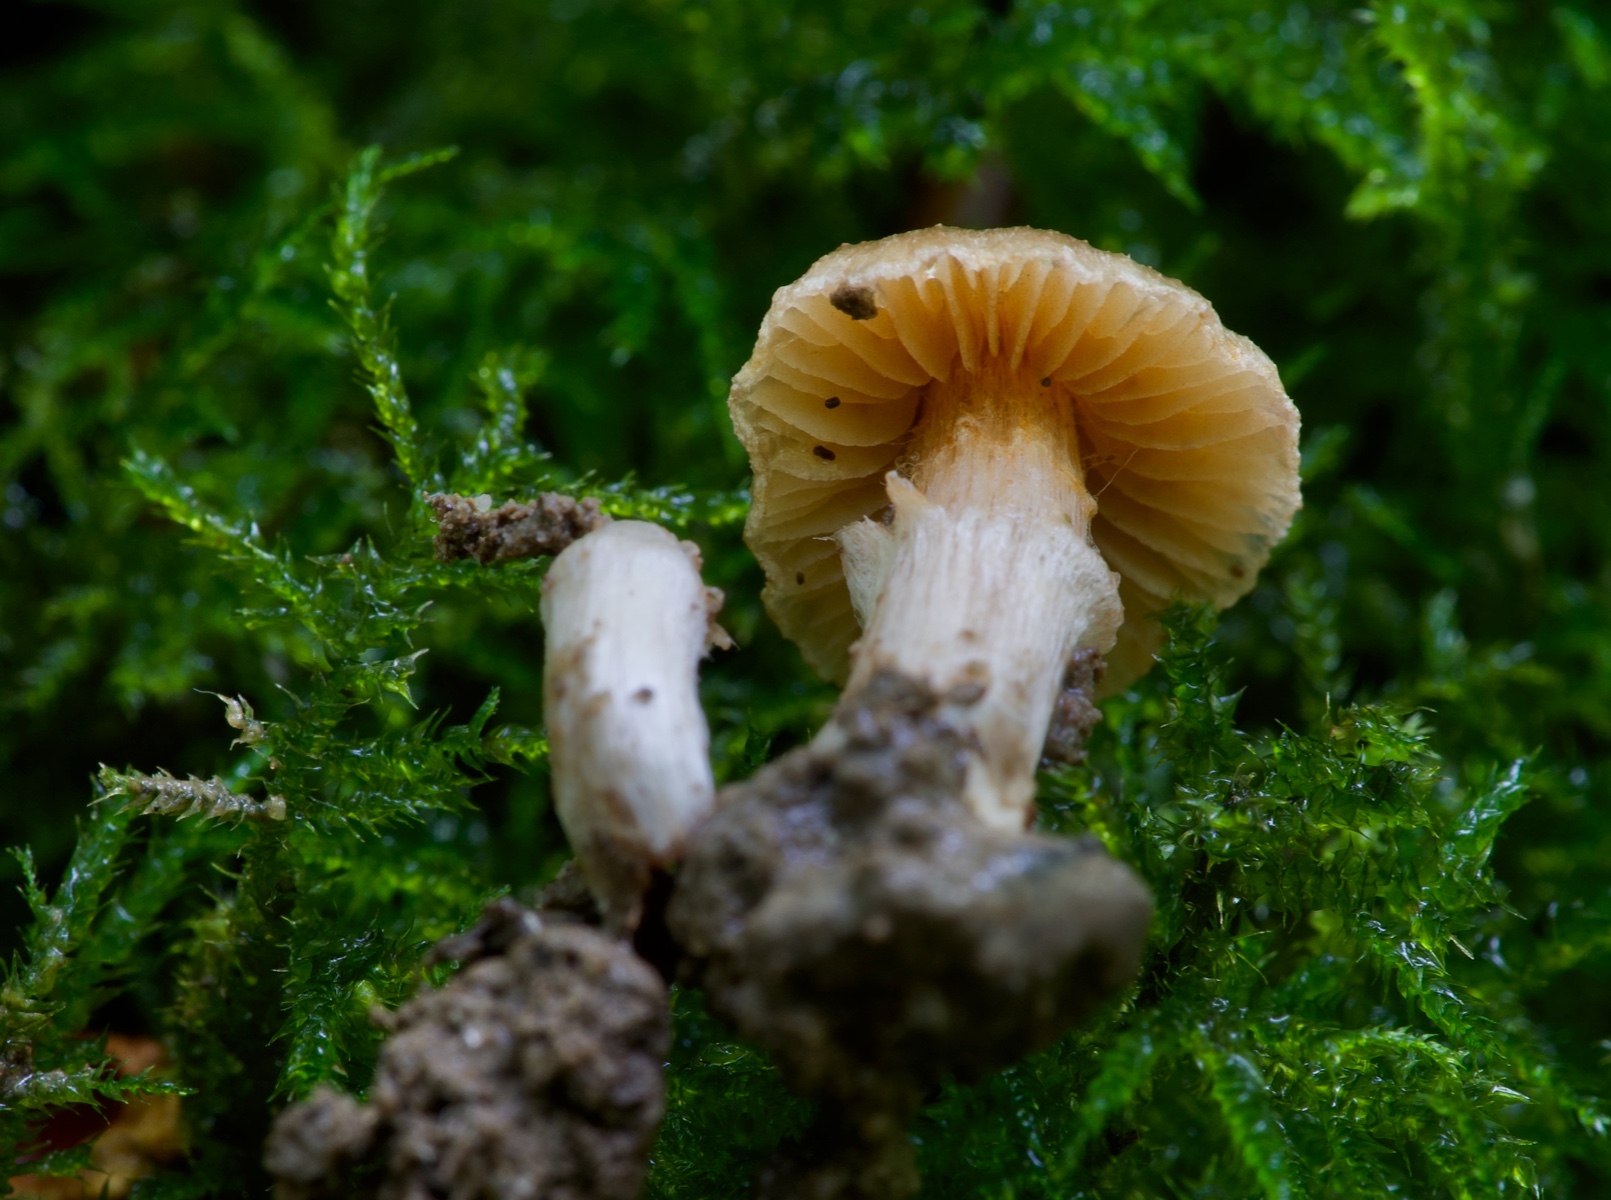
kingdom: Fungi
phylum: Basidiomycota
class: Agaricomycetes
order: Agaricales
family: Cortinariaceae
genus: Cortinarius
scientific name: Cortinarius megacystidiosus
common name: lavbæltet slørhat
